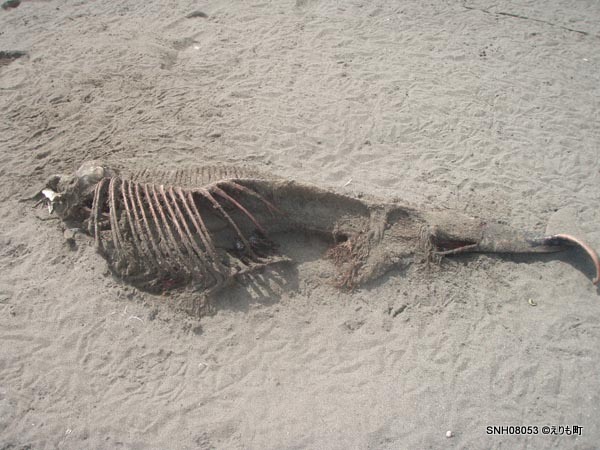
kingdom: Animalia
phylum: Chordata
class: Mammalia
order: Cetacea
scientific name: Cetacea
